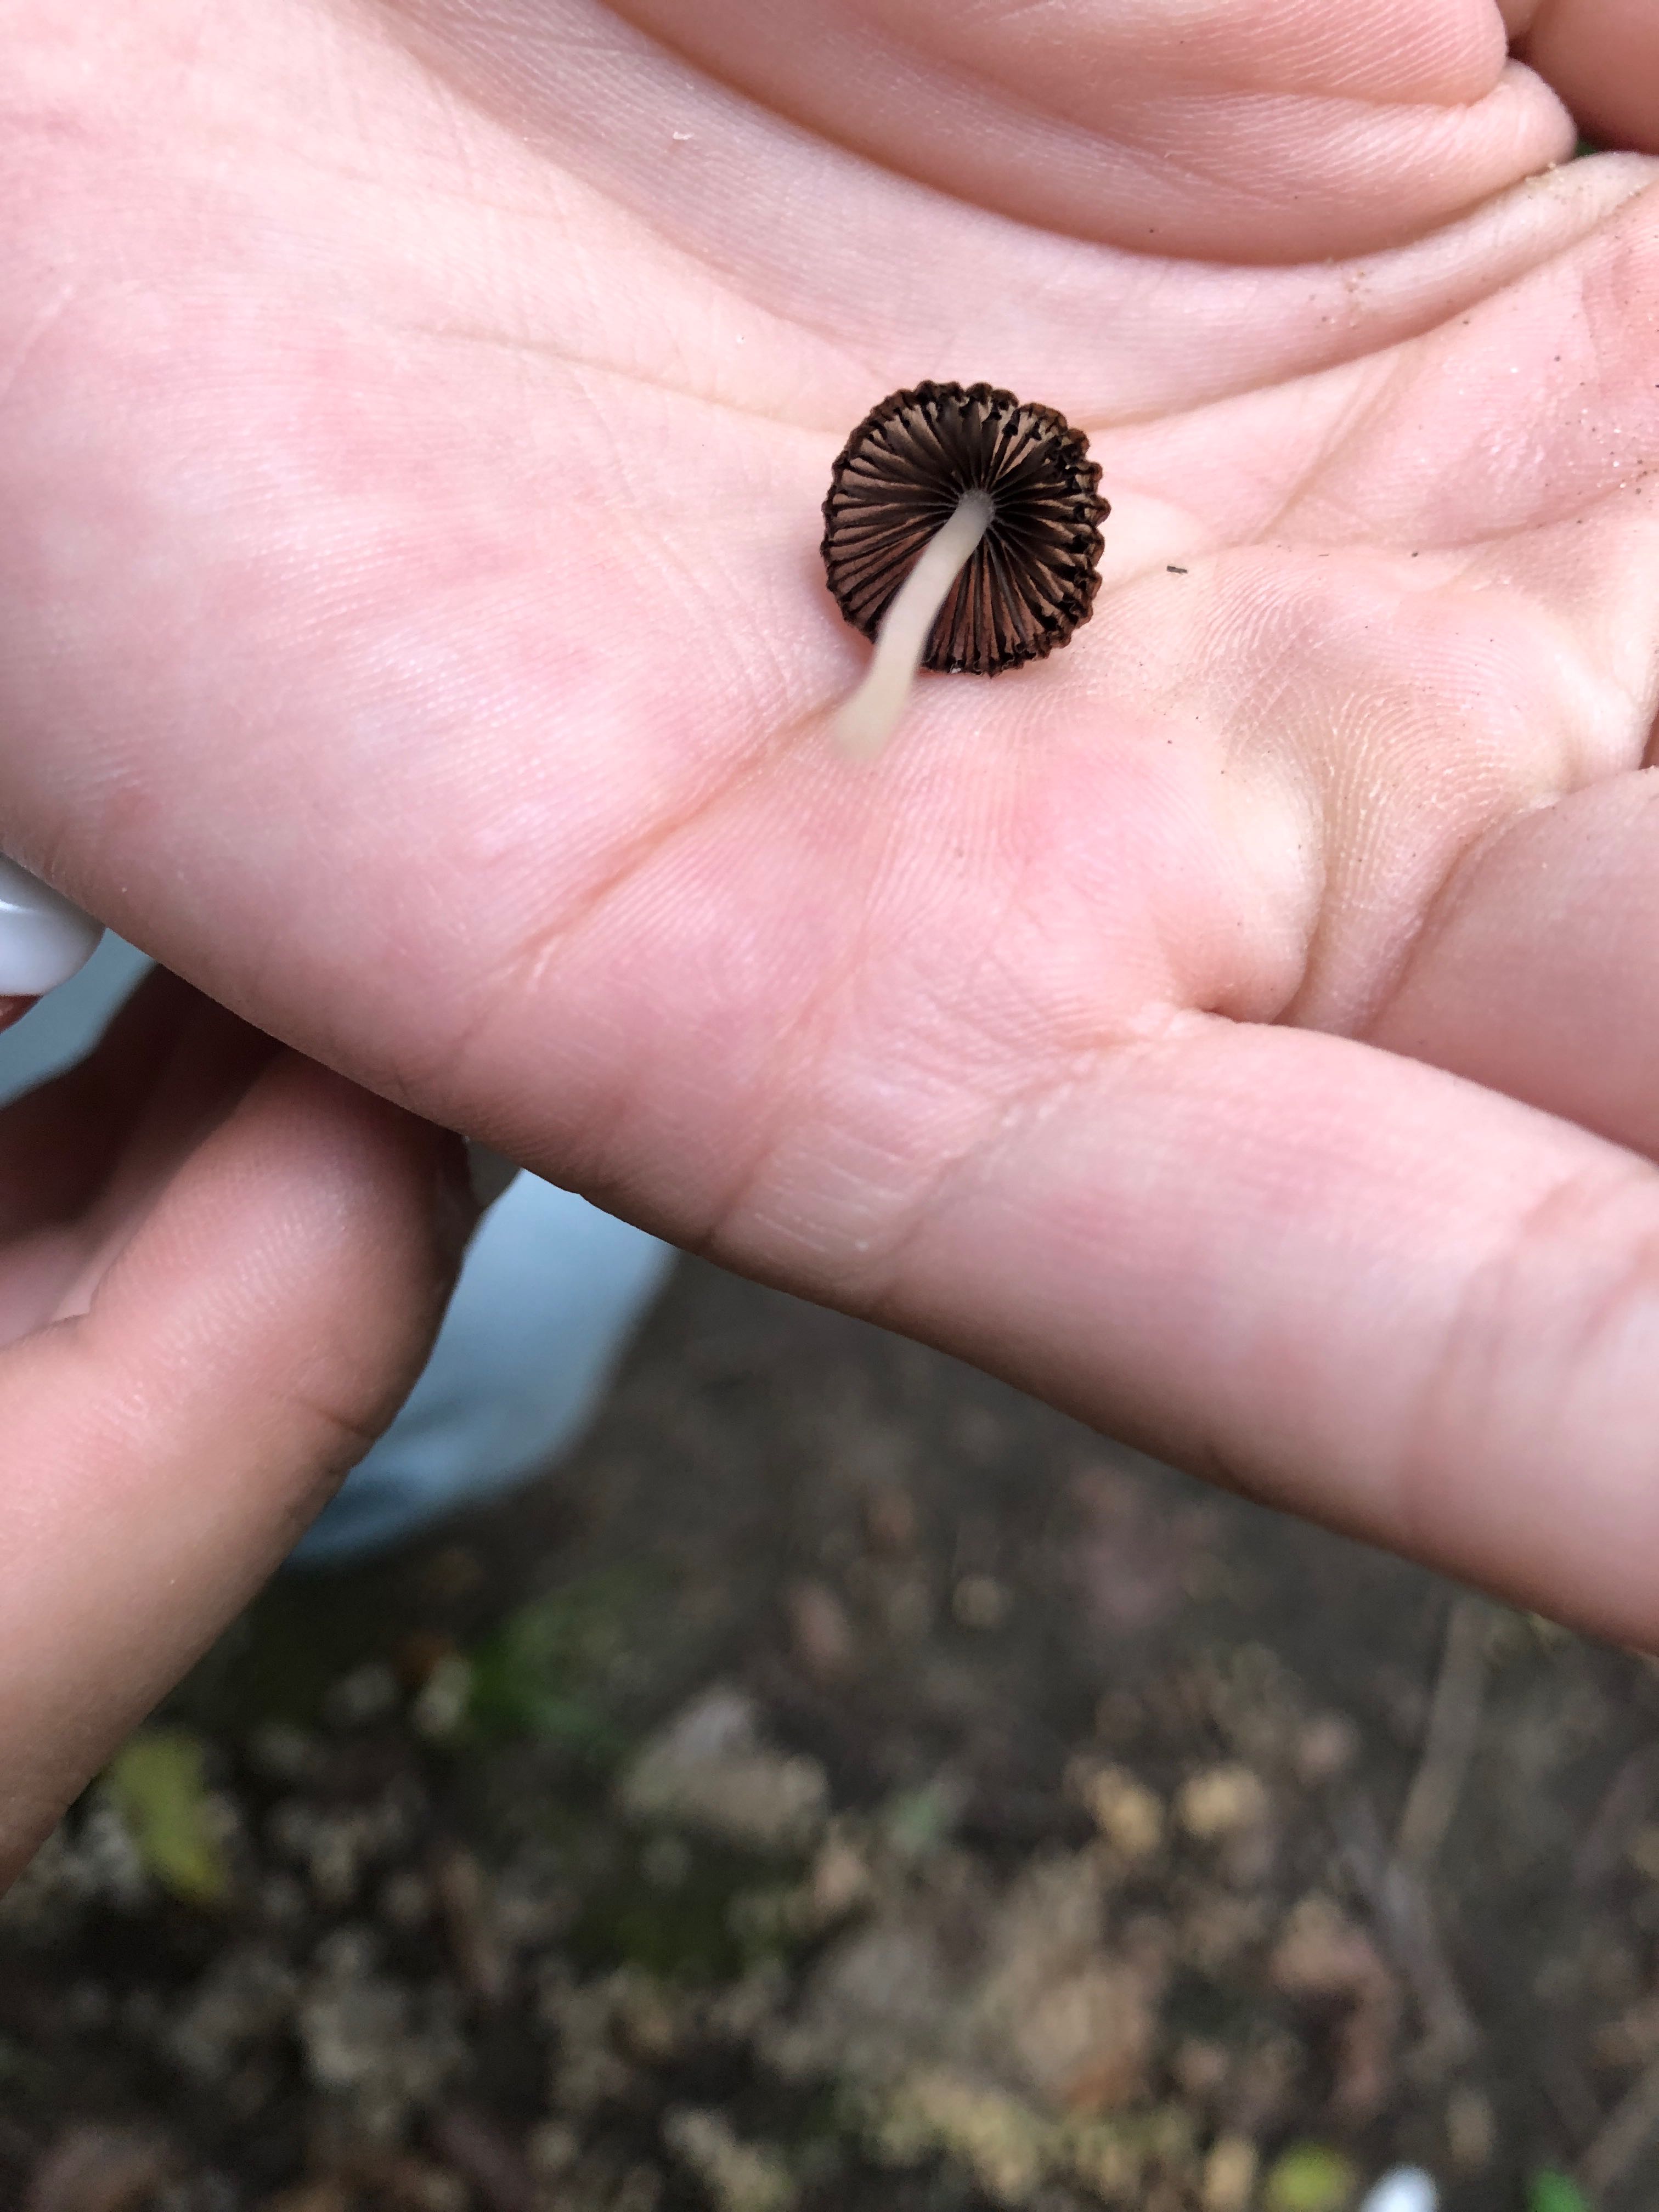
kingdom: Fungi
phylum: Basidiomycota
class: Agaricomycetes
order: Agaricales
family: Psathyrellaceae
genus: Coprinellus
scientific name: Coprinellus disseminatus
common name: bredsået blækhat
